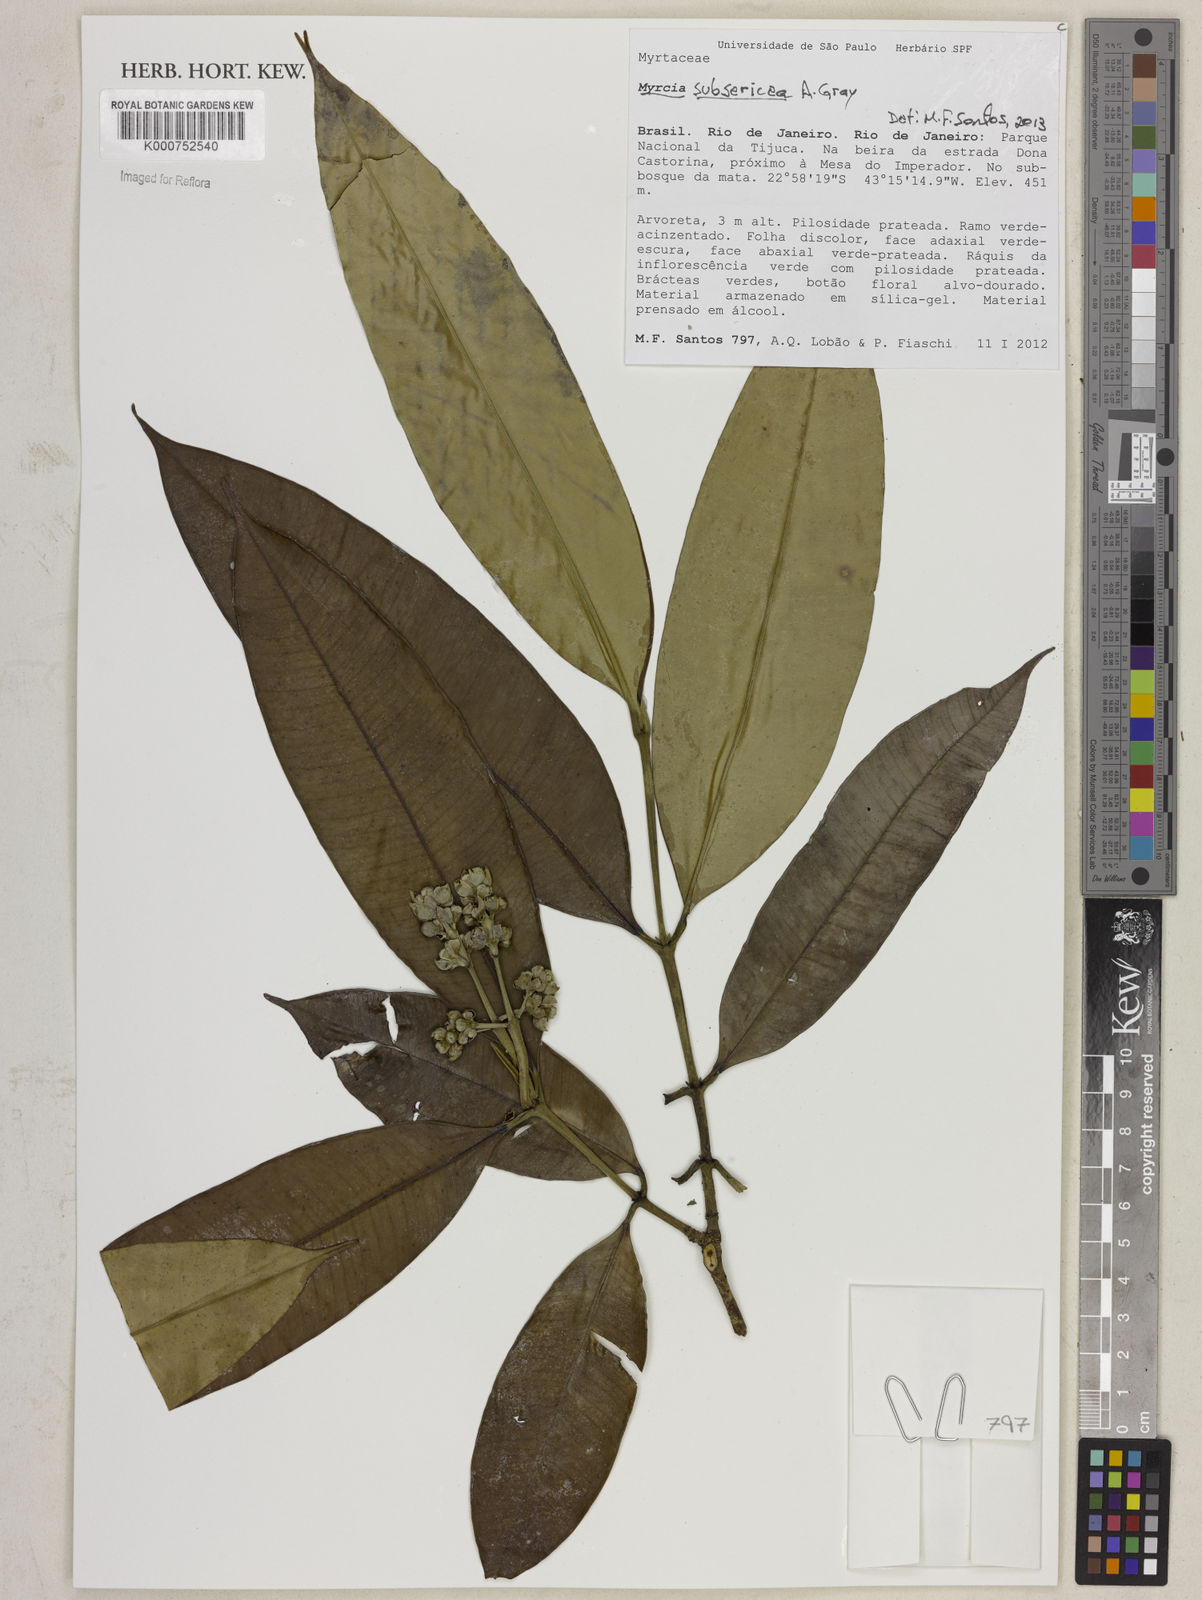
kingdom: Plantae
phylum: Tracheophyta
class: Magnoliopsida
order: Myrtales
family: Myrtaceae
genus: Myrcia
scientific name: Myrcia subcordata
